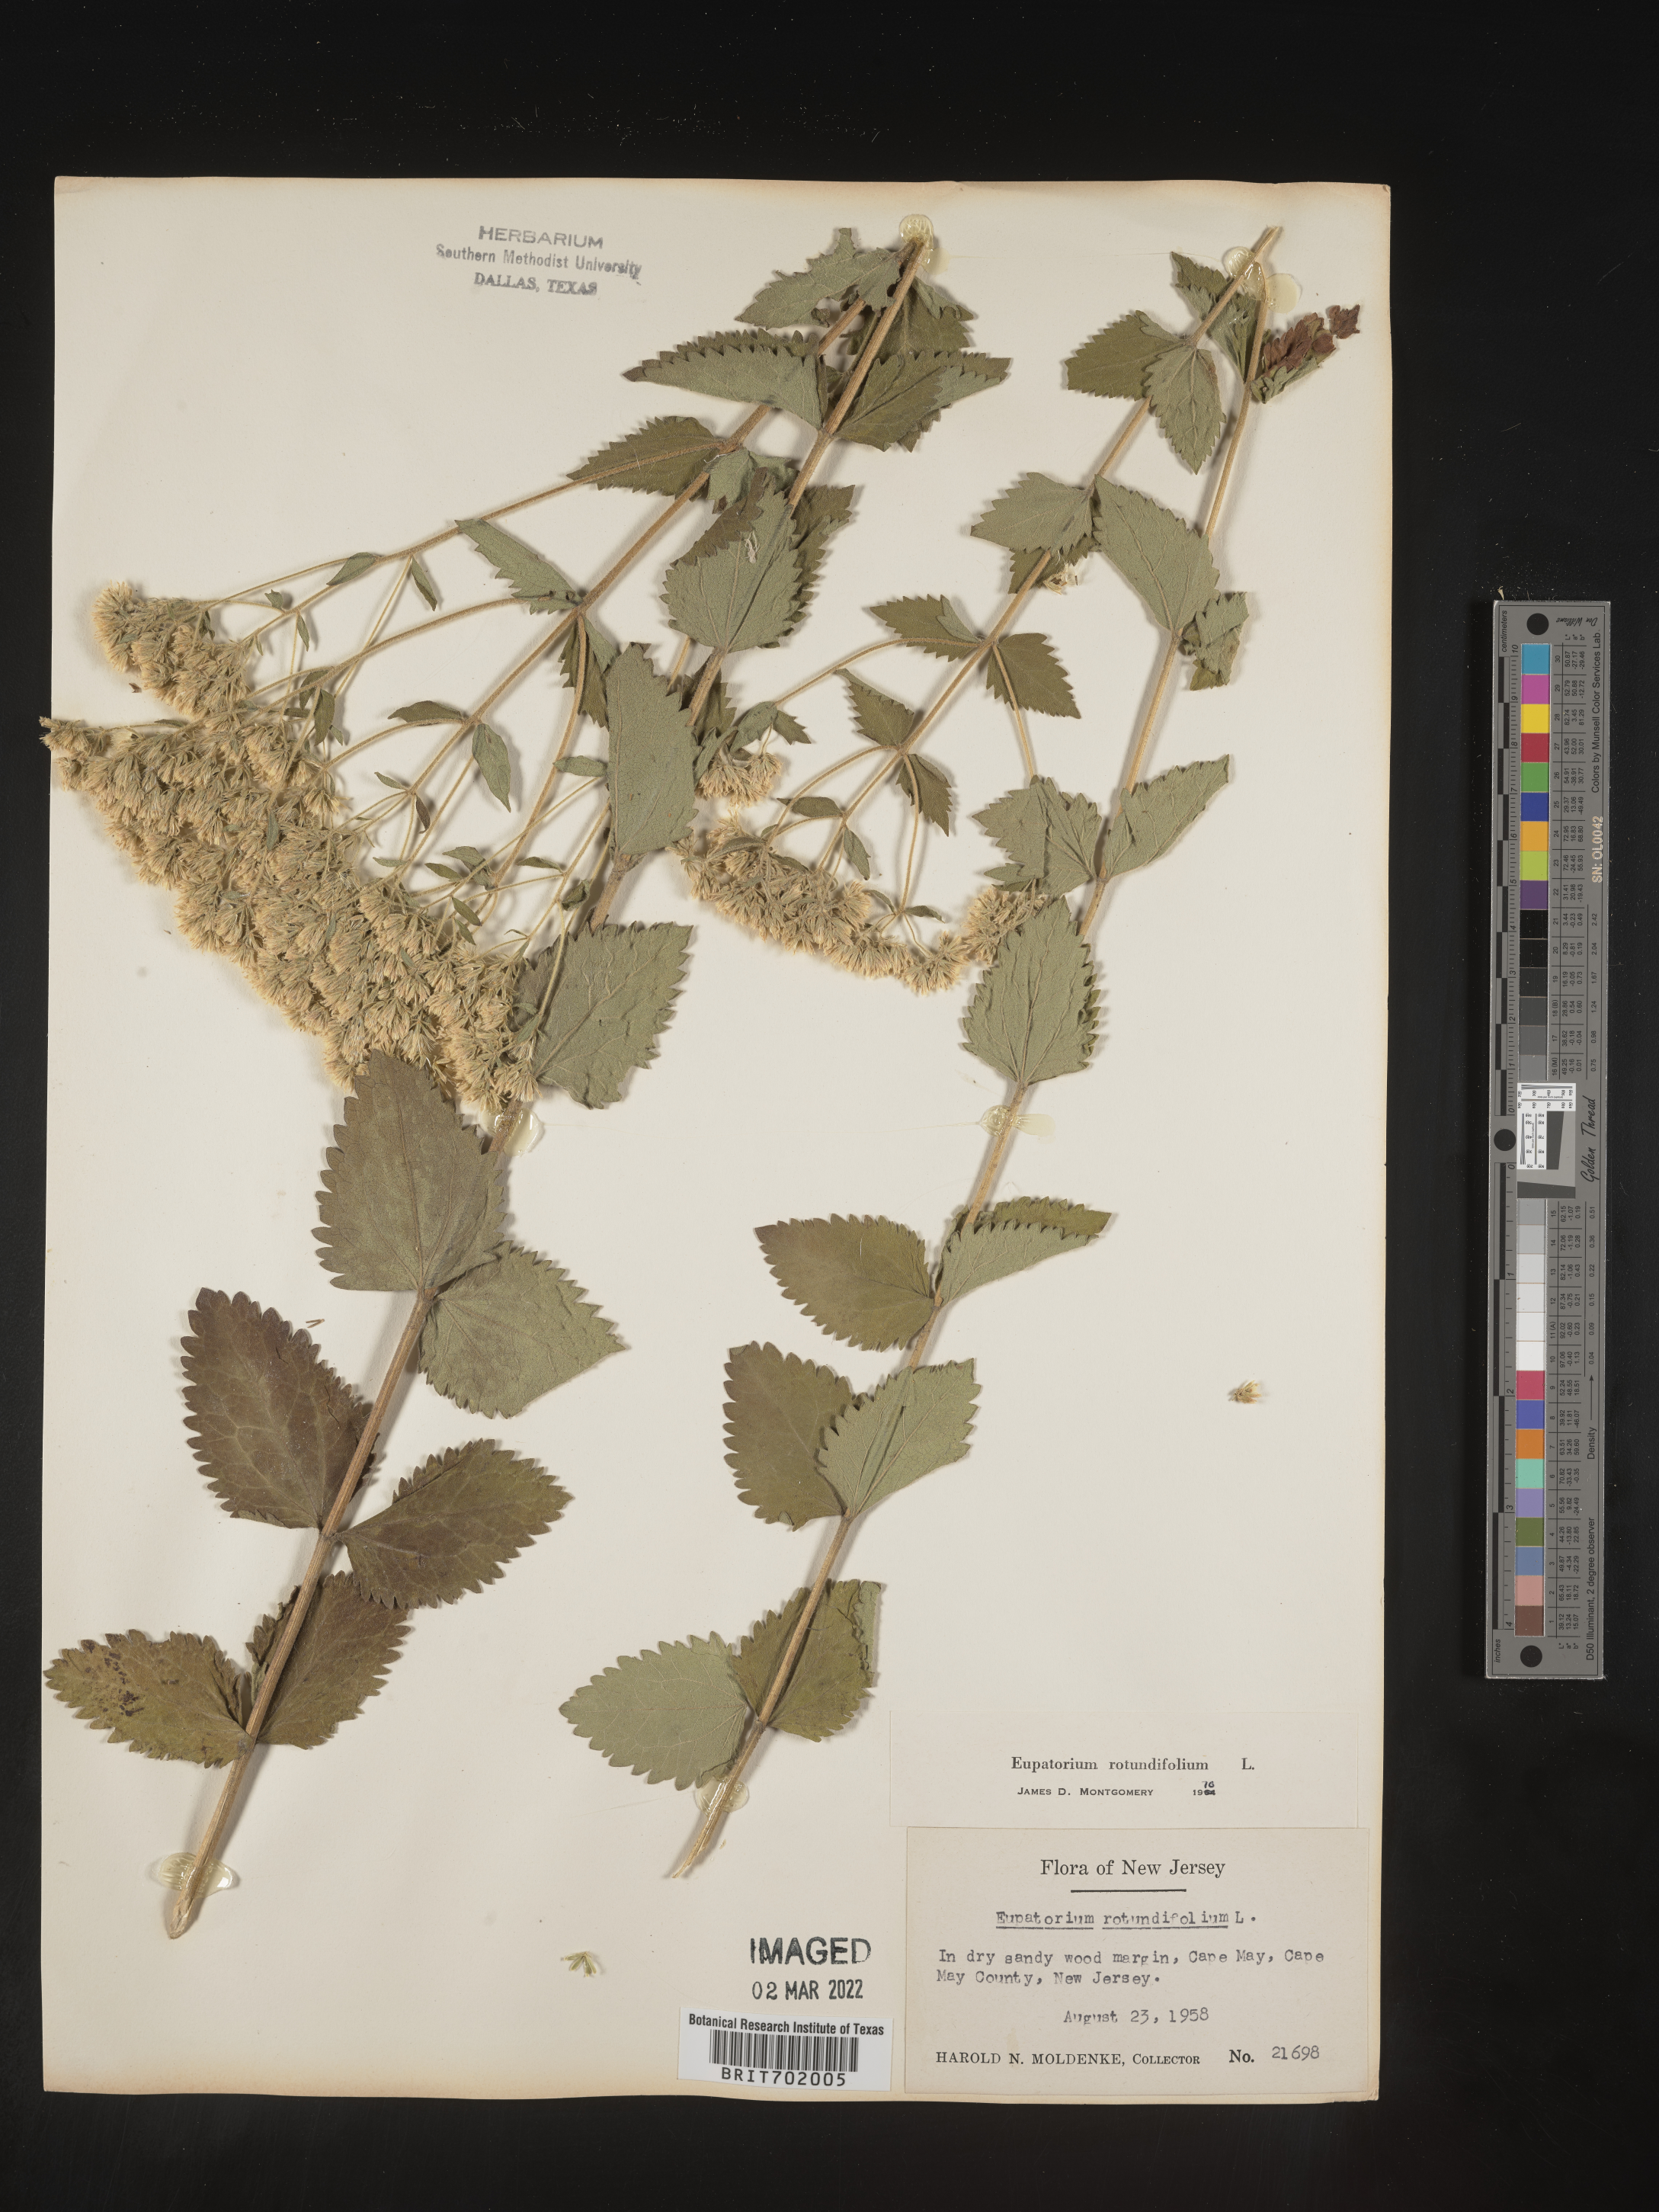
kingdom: Plantae
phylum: Tracheophyta
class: Magnoliopsida
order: Asterales
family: Asteraceae
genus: Eupatorium
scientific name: Eupatorium rotundifolium
